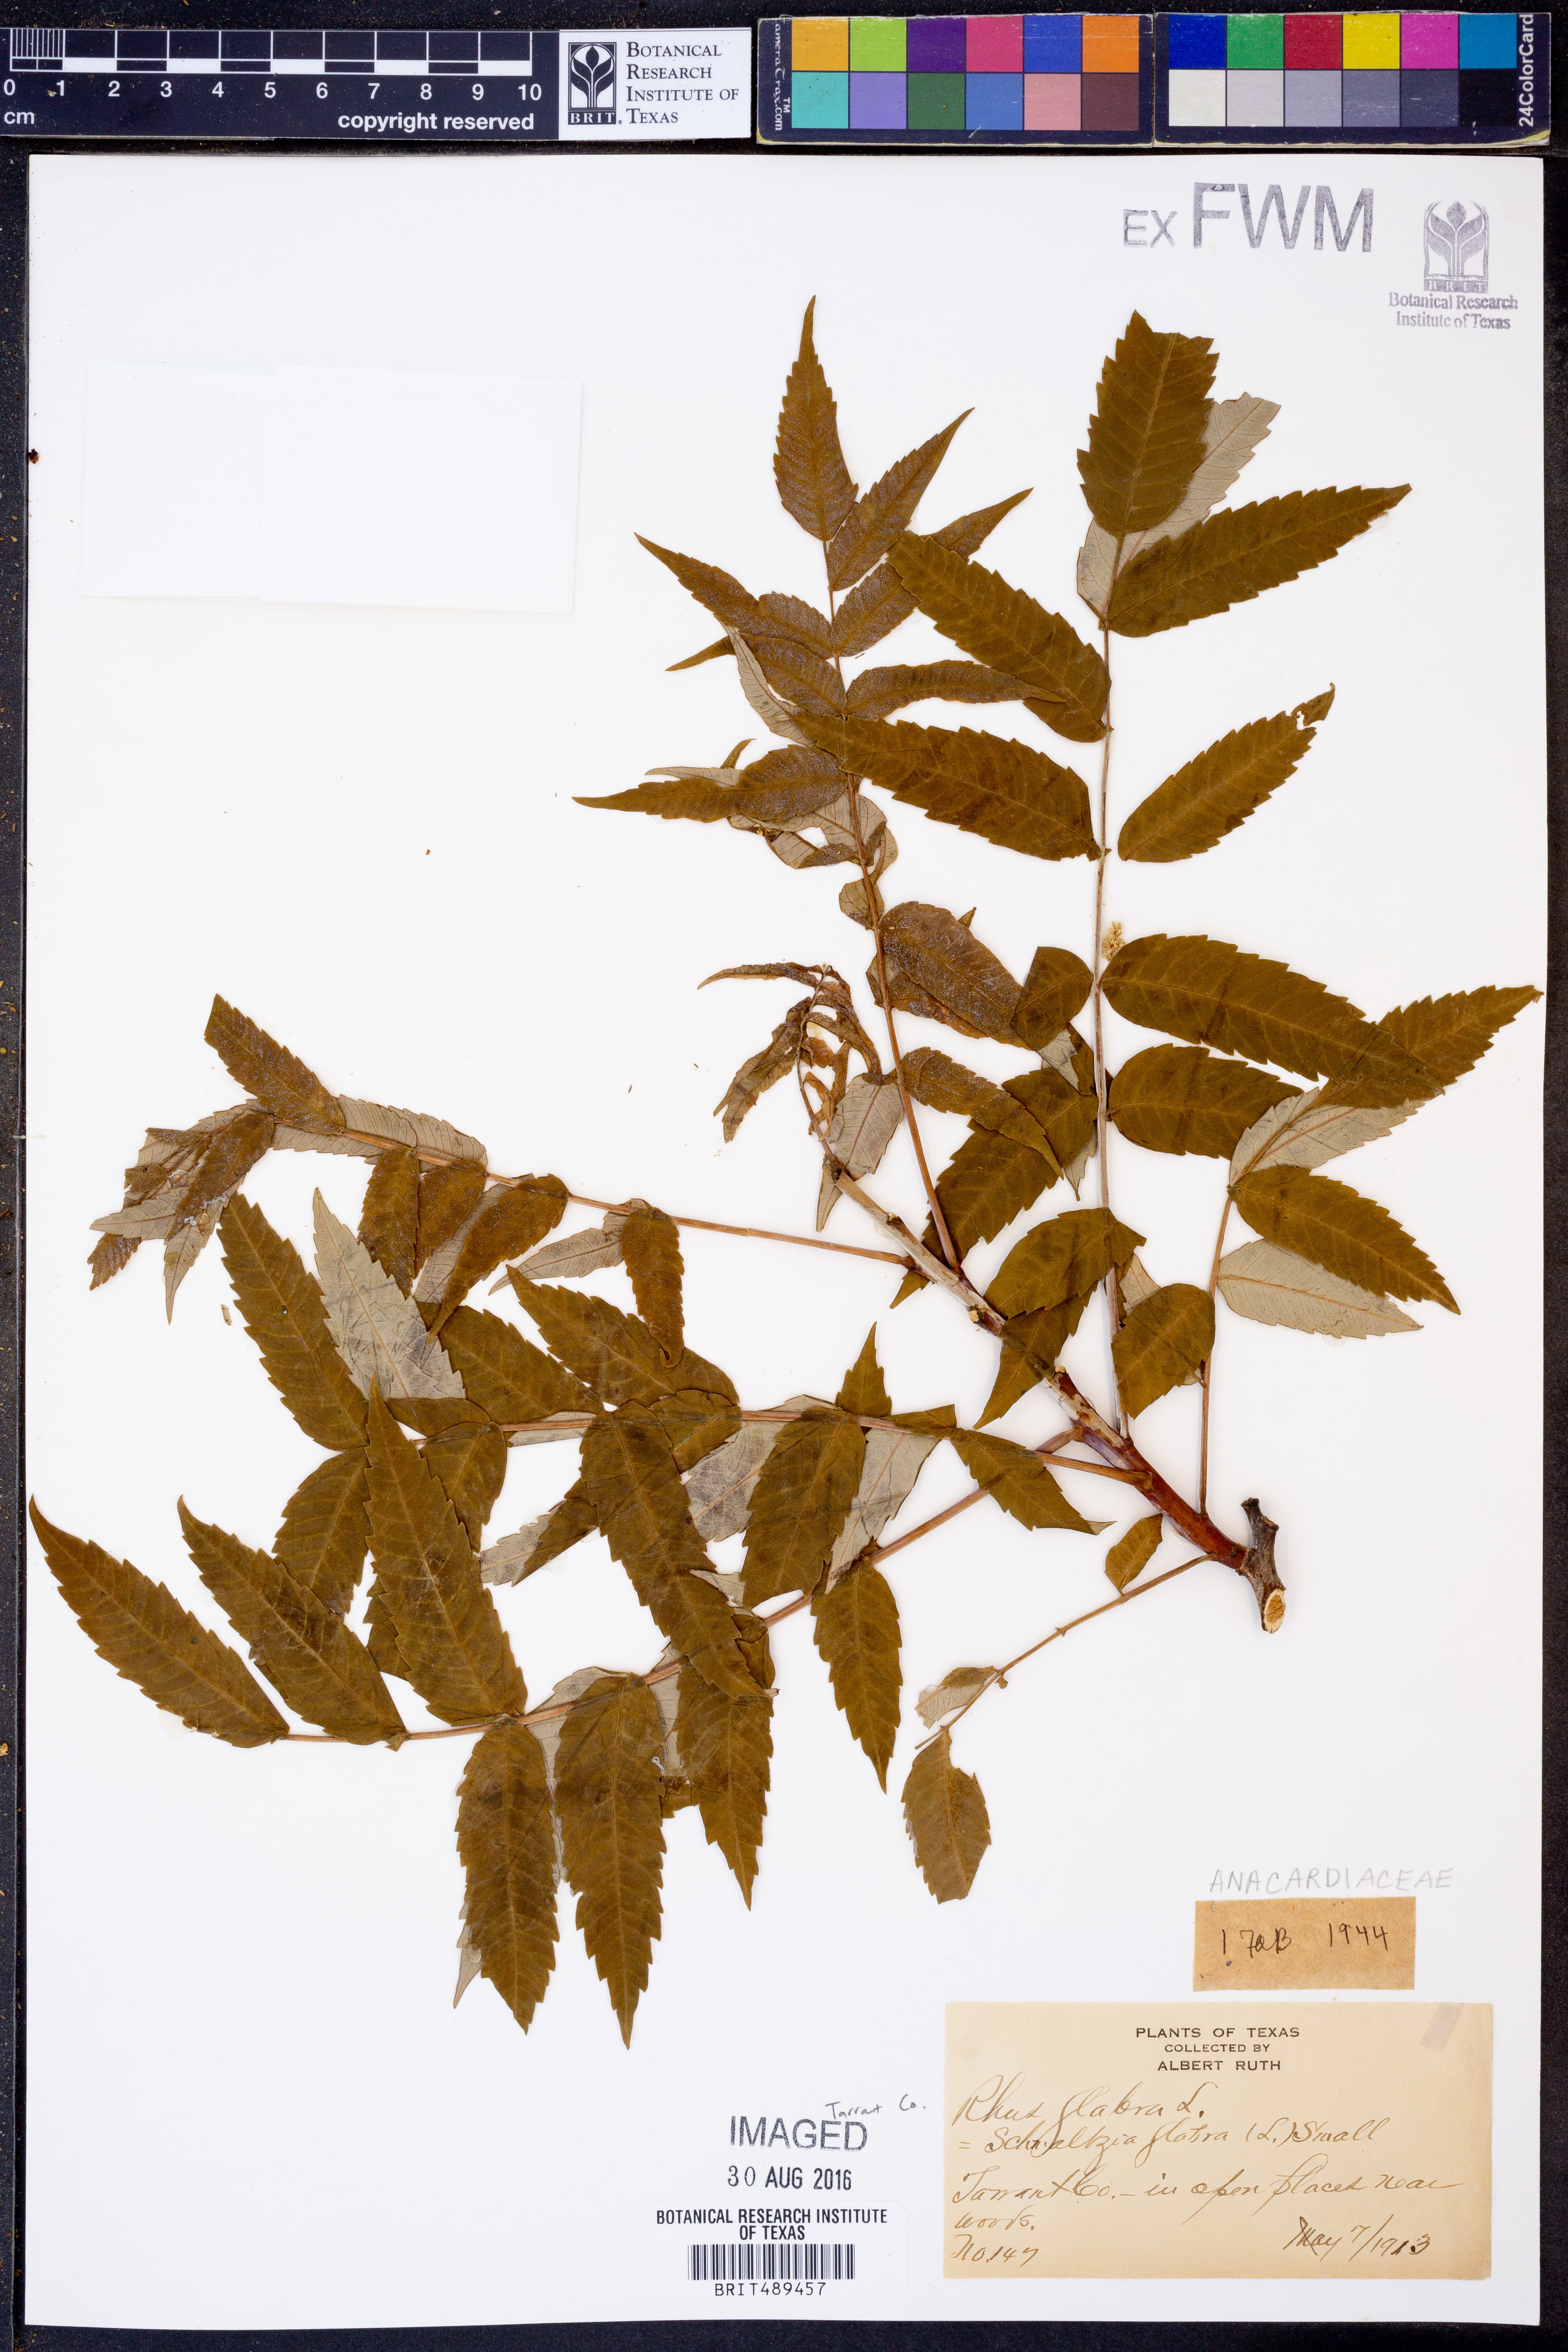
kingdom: Plantae
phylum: Tracheophyta
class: Magnoliopsida
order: Sapindales
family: Anacardiaceae
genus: Rhus
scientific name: Rhus glabra
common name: Scarlet sumac
